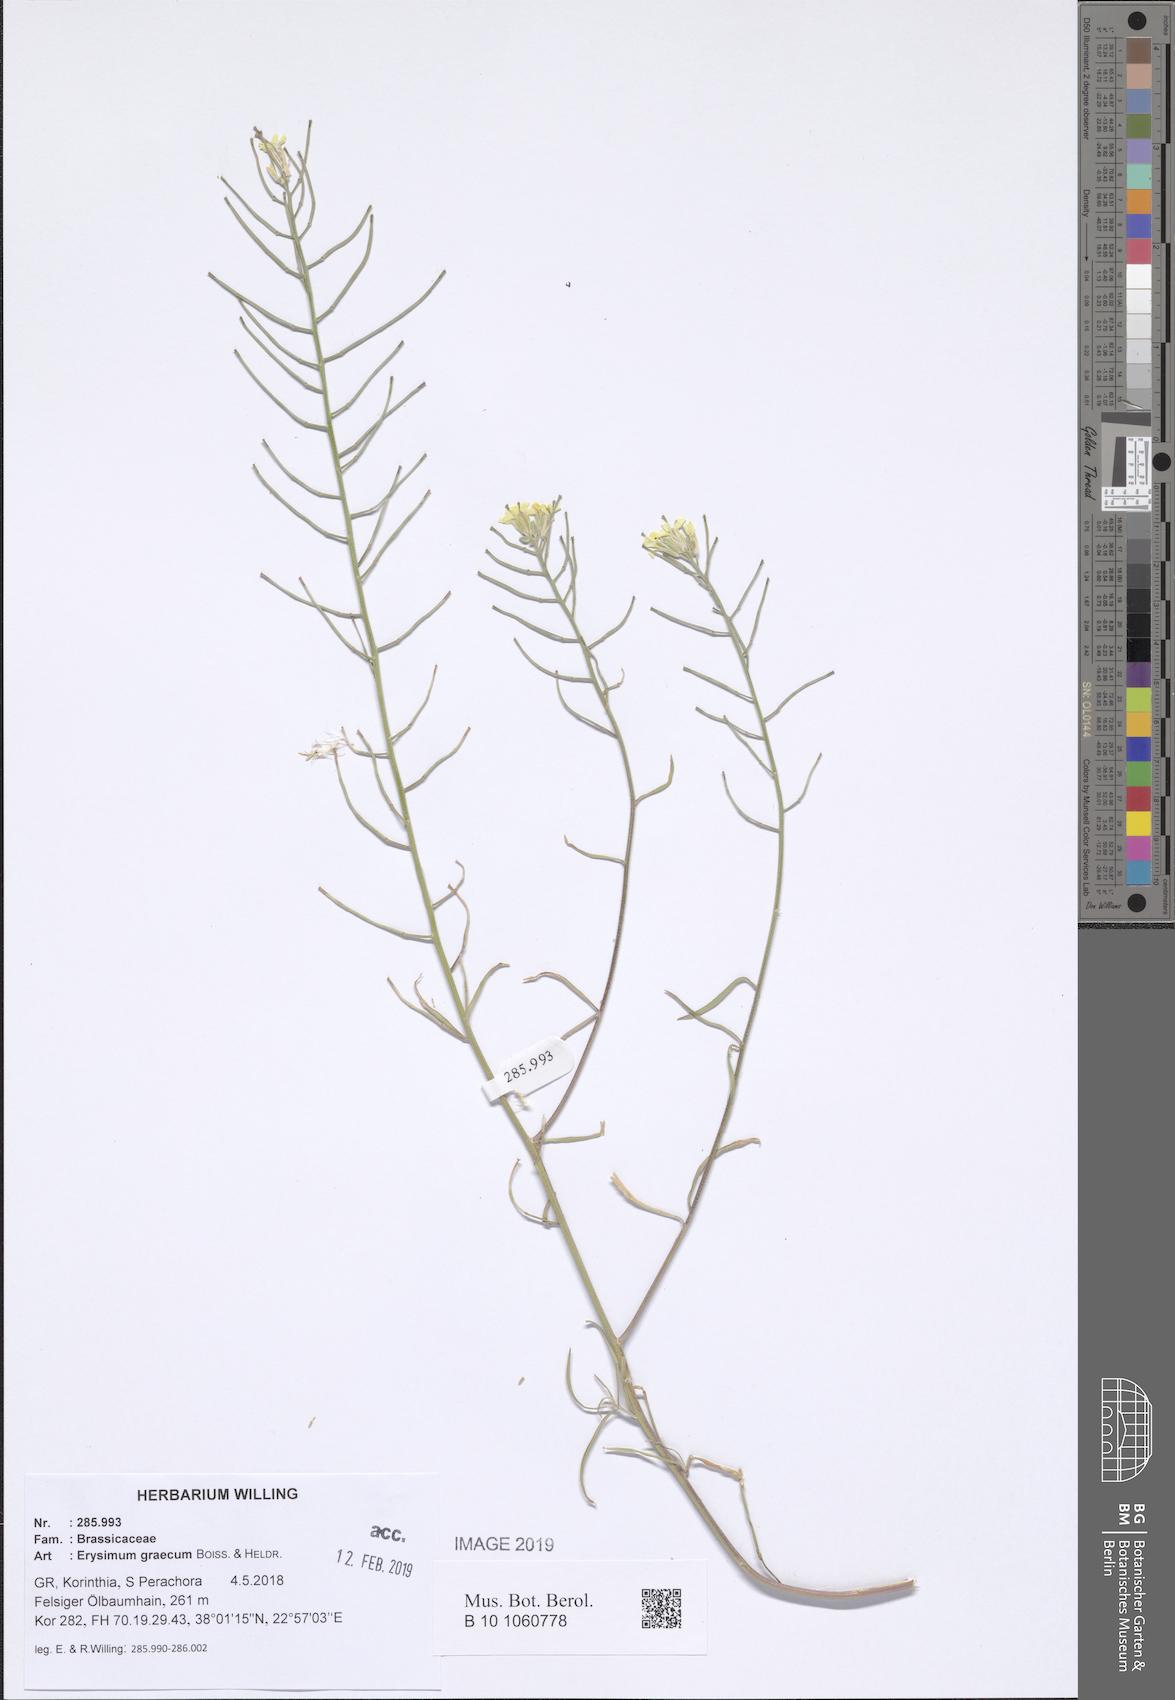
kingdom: Plantae
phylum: Tracheophyta
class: Magnoliopsida
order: Brassicales
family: Brassicaceae
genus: Erysimum
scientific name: Erysimum graecum
